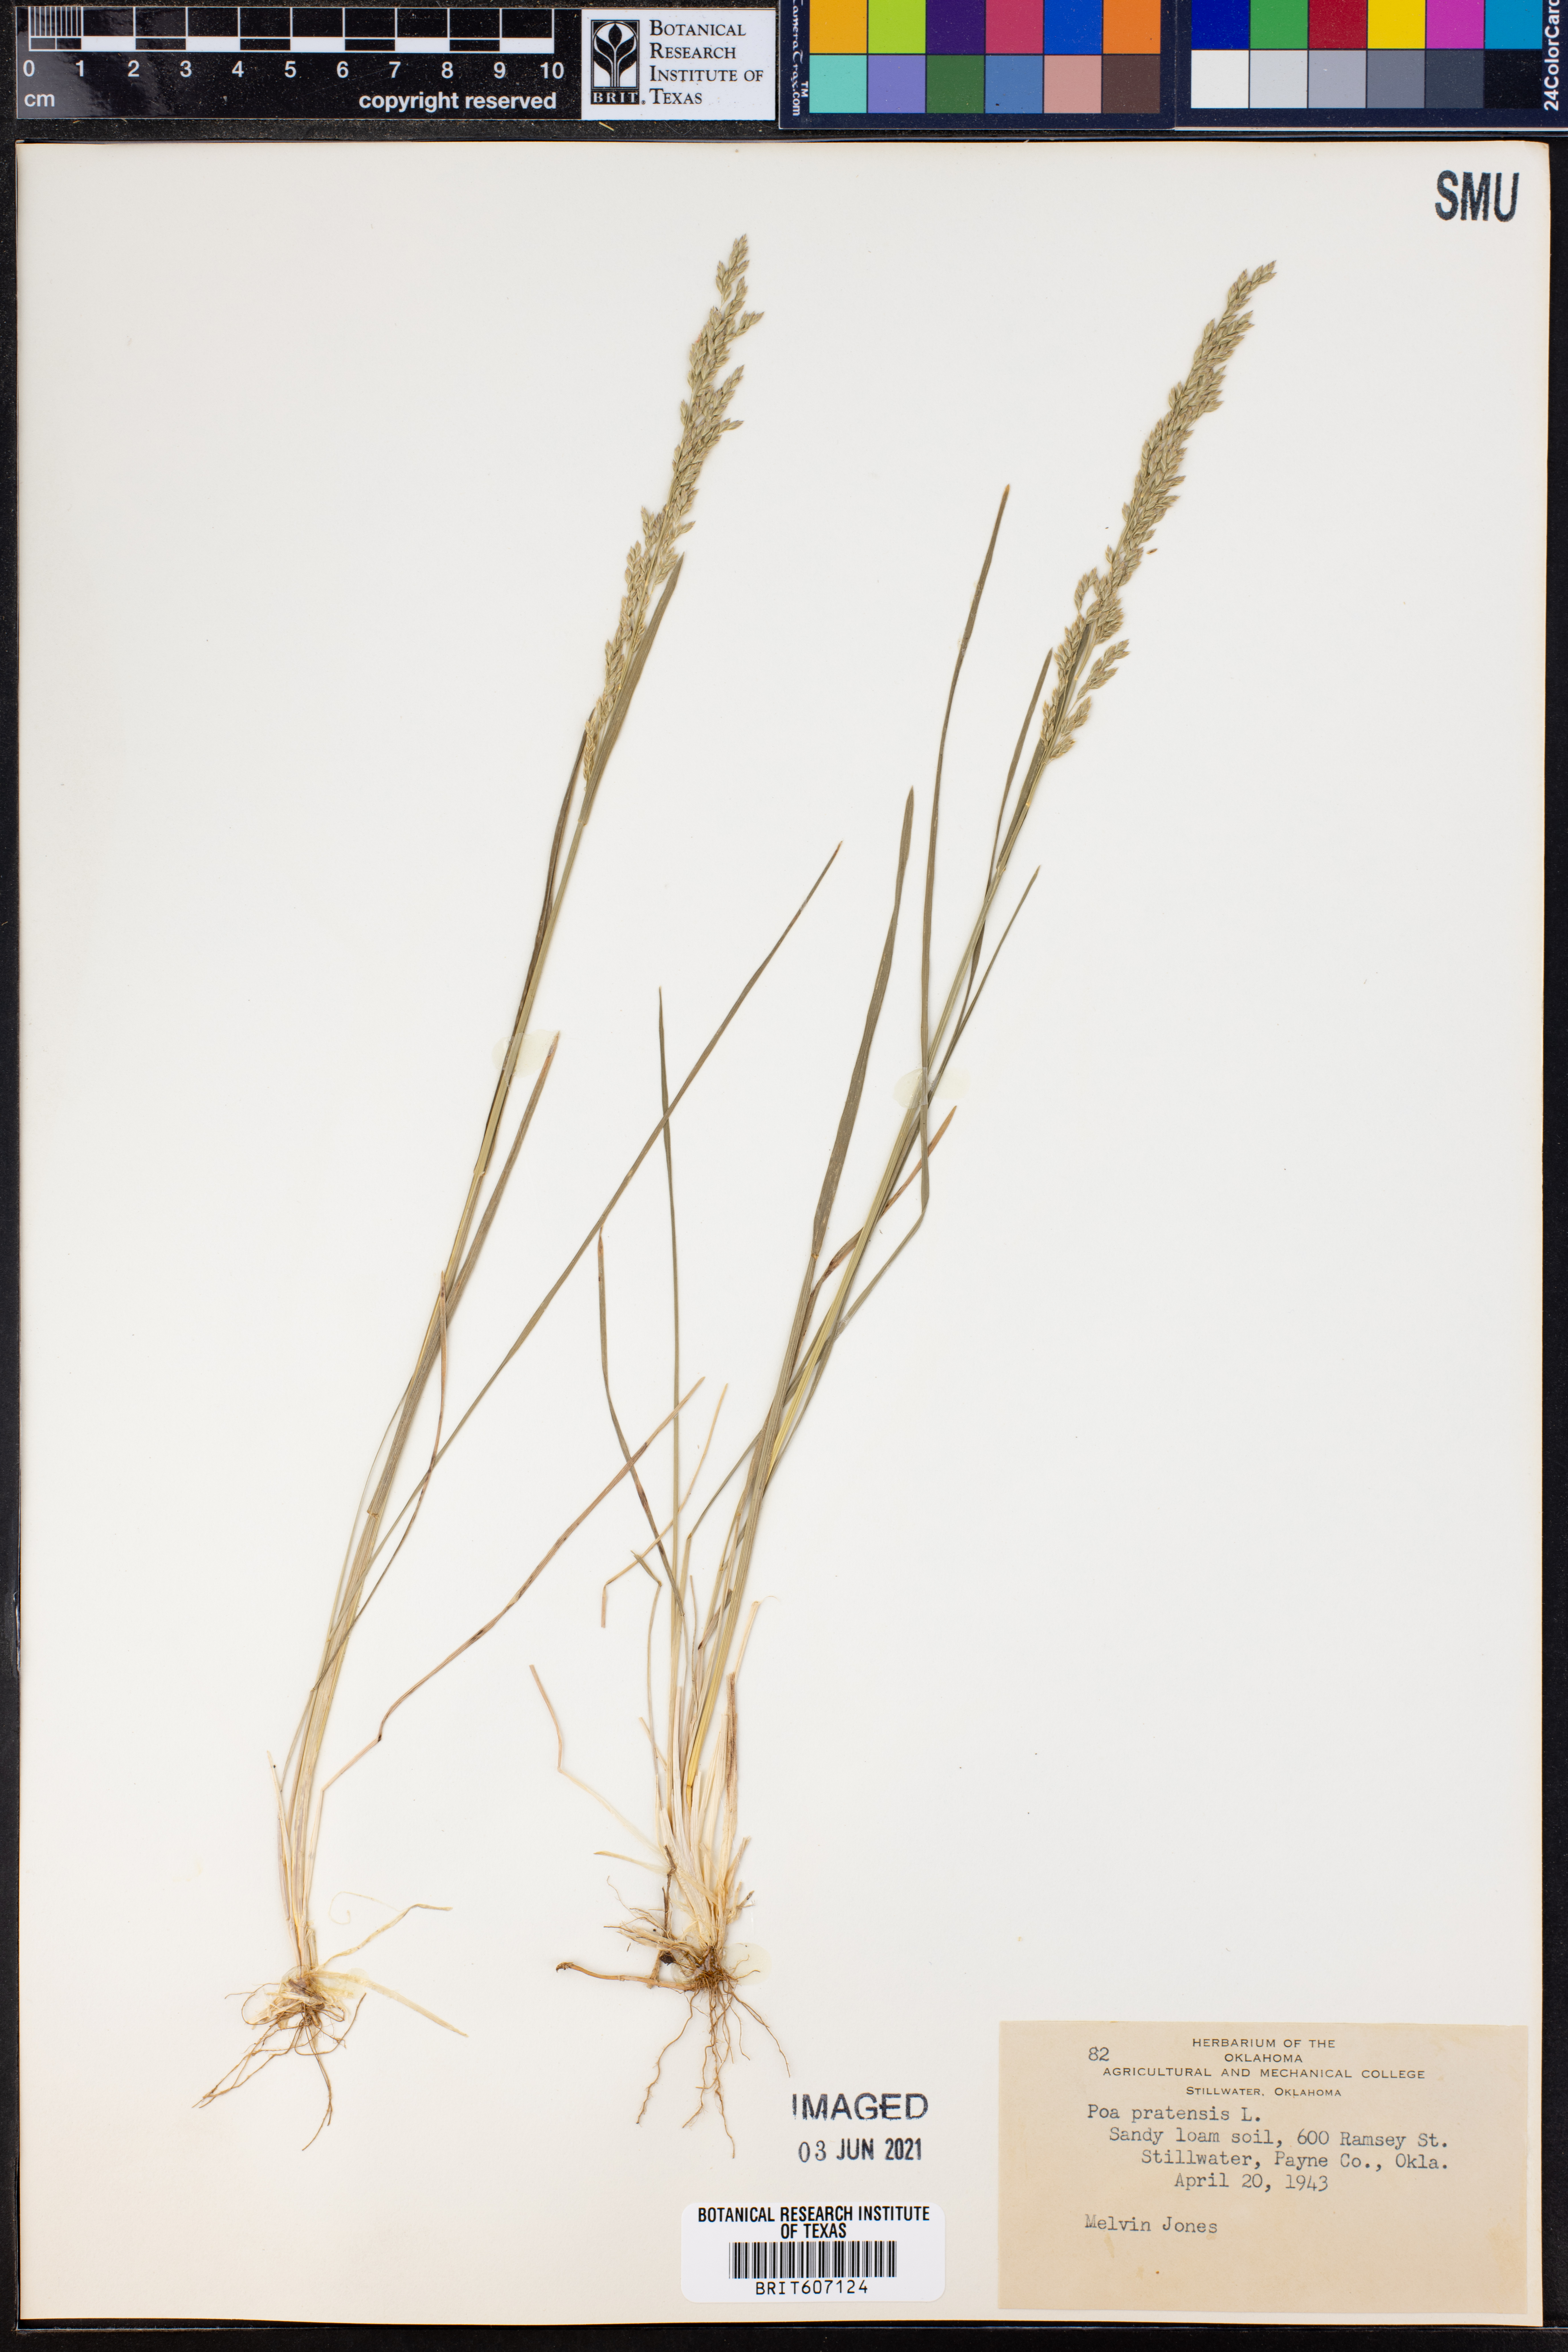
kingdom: Plantae
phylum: Tracheophyta
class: Liliopsida
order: Poales
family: Poaceae
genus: Poa
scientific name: Poa pratensis
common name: Kentucky bluegrass
